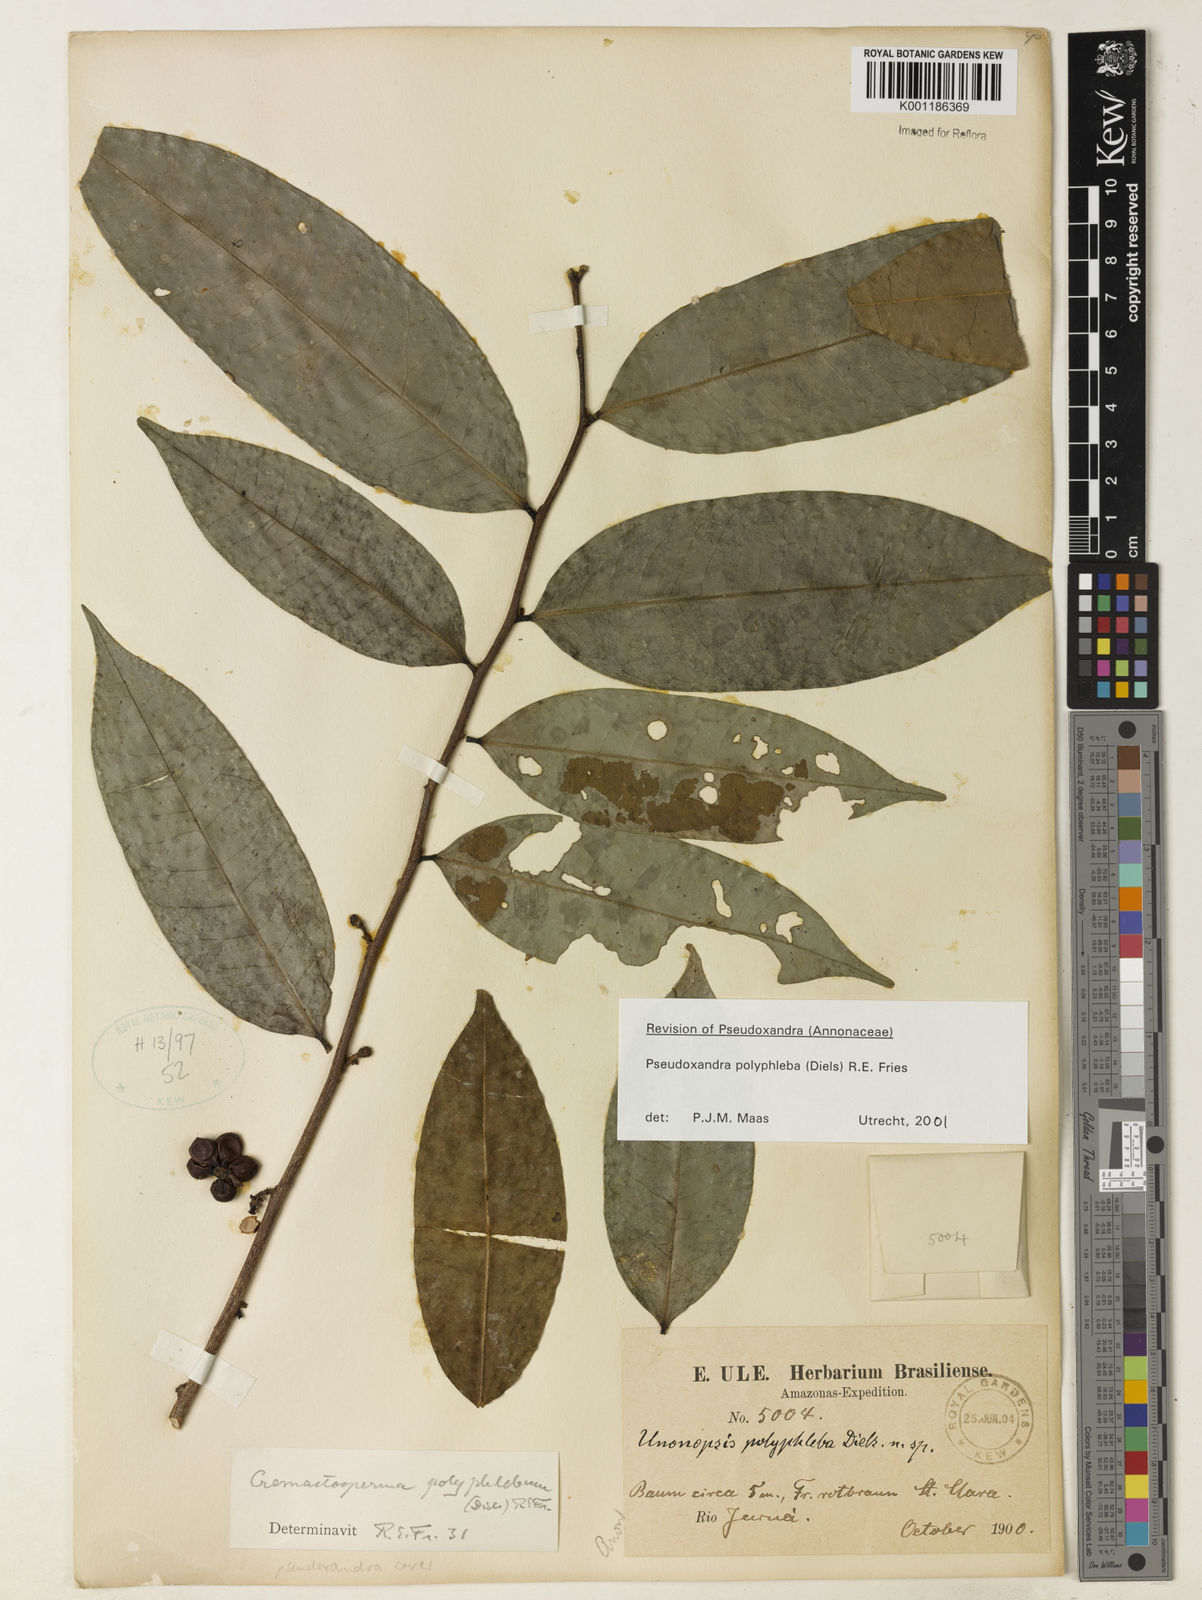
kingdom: Plantae
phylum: Tracheophyta
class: Magnoliopsida
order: Magnoliales
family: Annonaceae
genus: Pseudoxandra
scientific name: Pseudoxandra polyphleba
